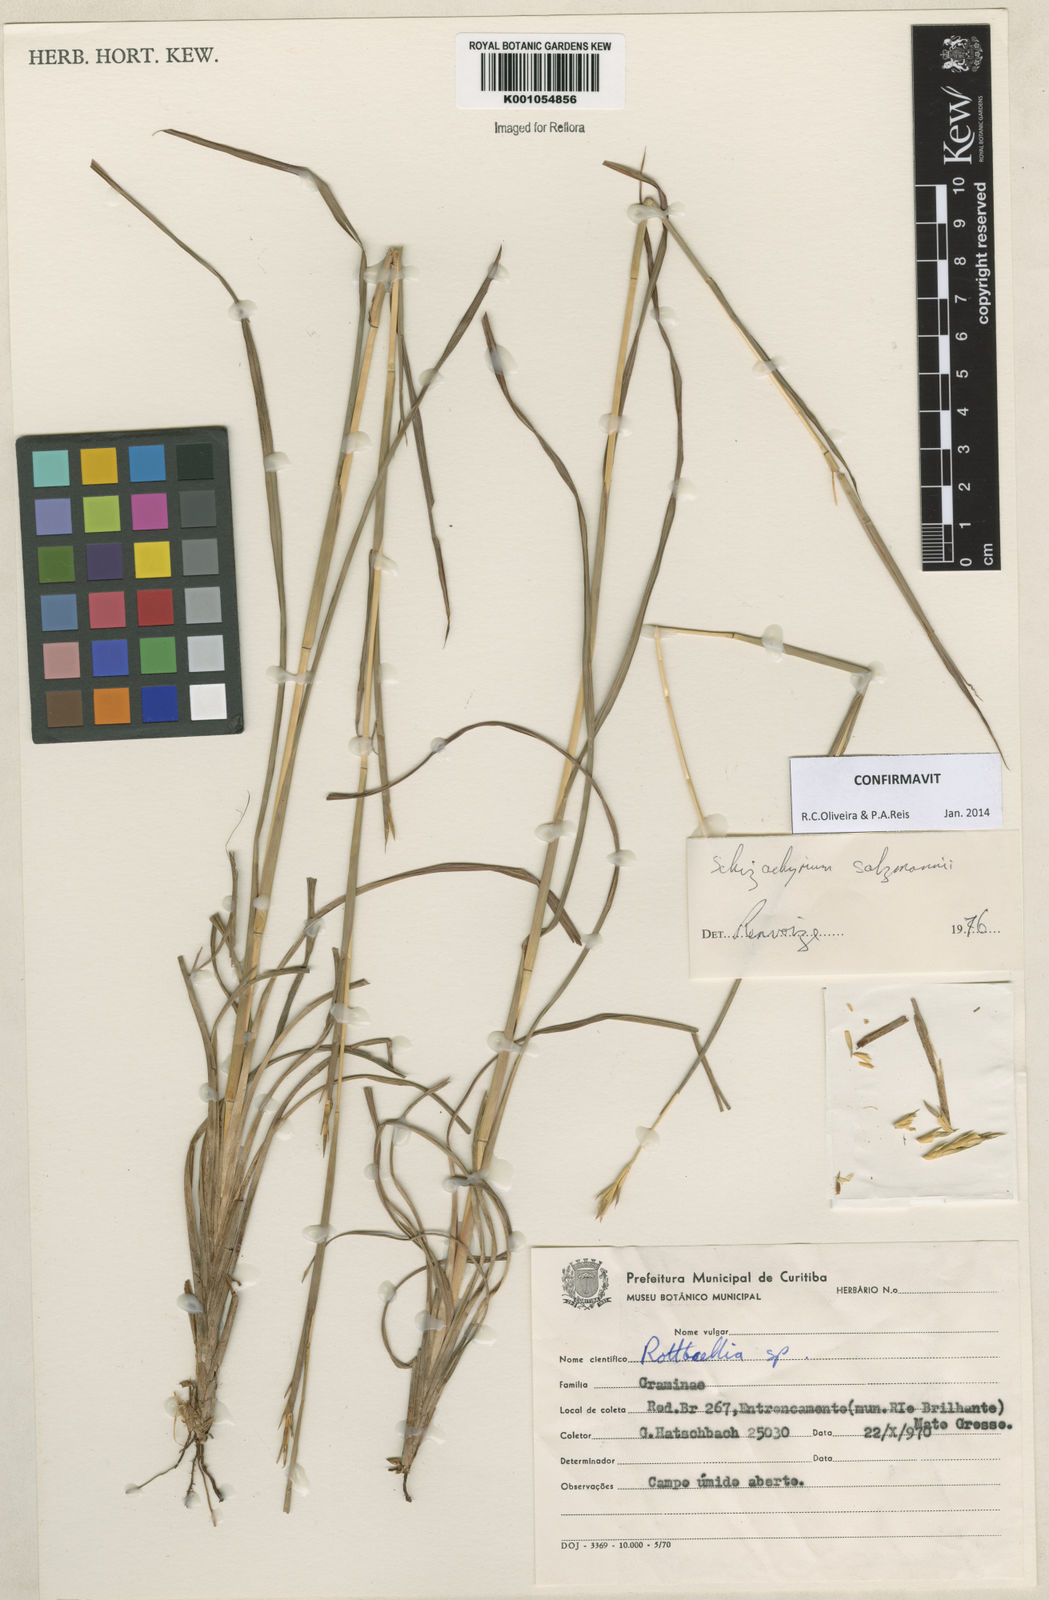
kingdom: Plantae
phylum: Tracheophyta
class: Liliopsida
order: Poales
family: Poaceae
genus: Andropogon
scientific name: Andropogon salzmannii
